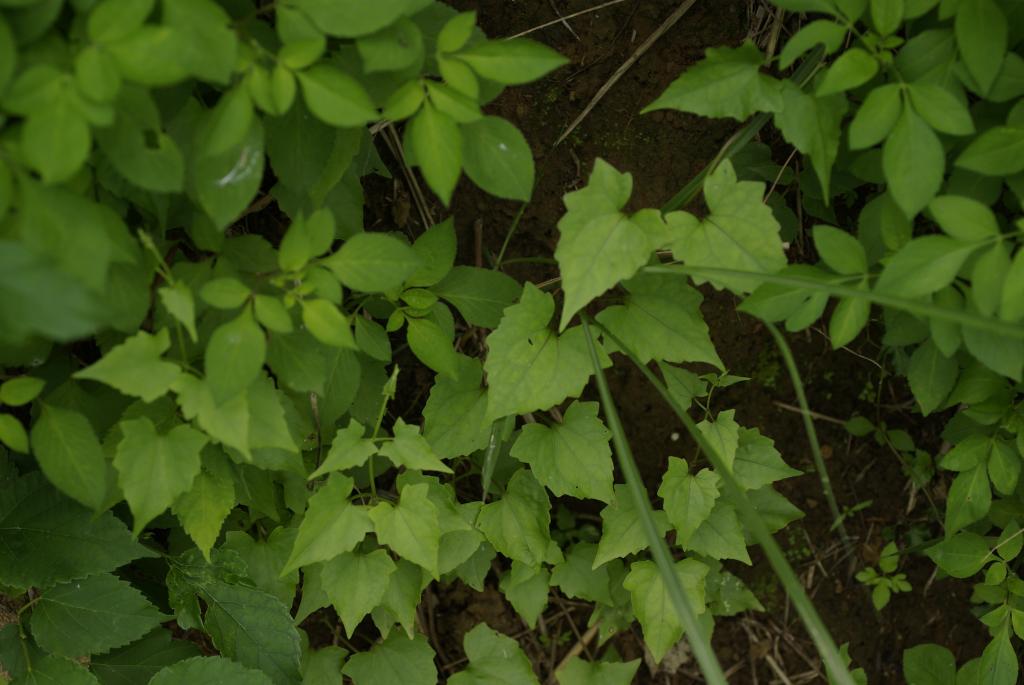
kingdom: Plantae
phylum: Tracheophyta
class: Magnoliopsida
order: Asterales
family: Asteraceae
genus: Mikania
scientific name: Mikania micrantha
